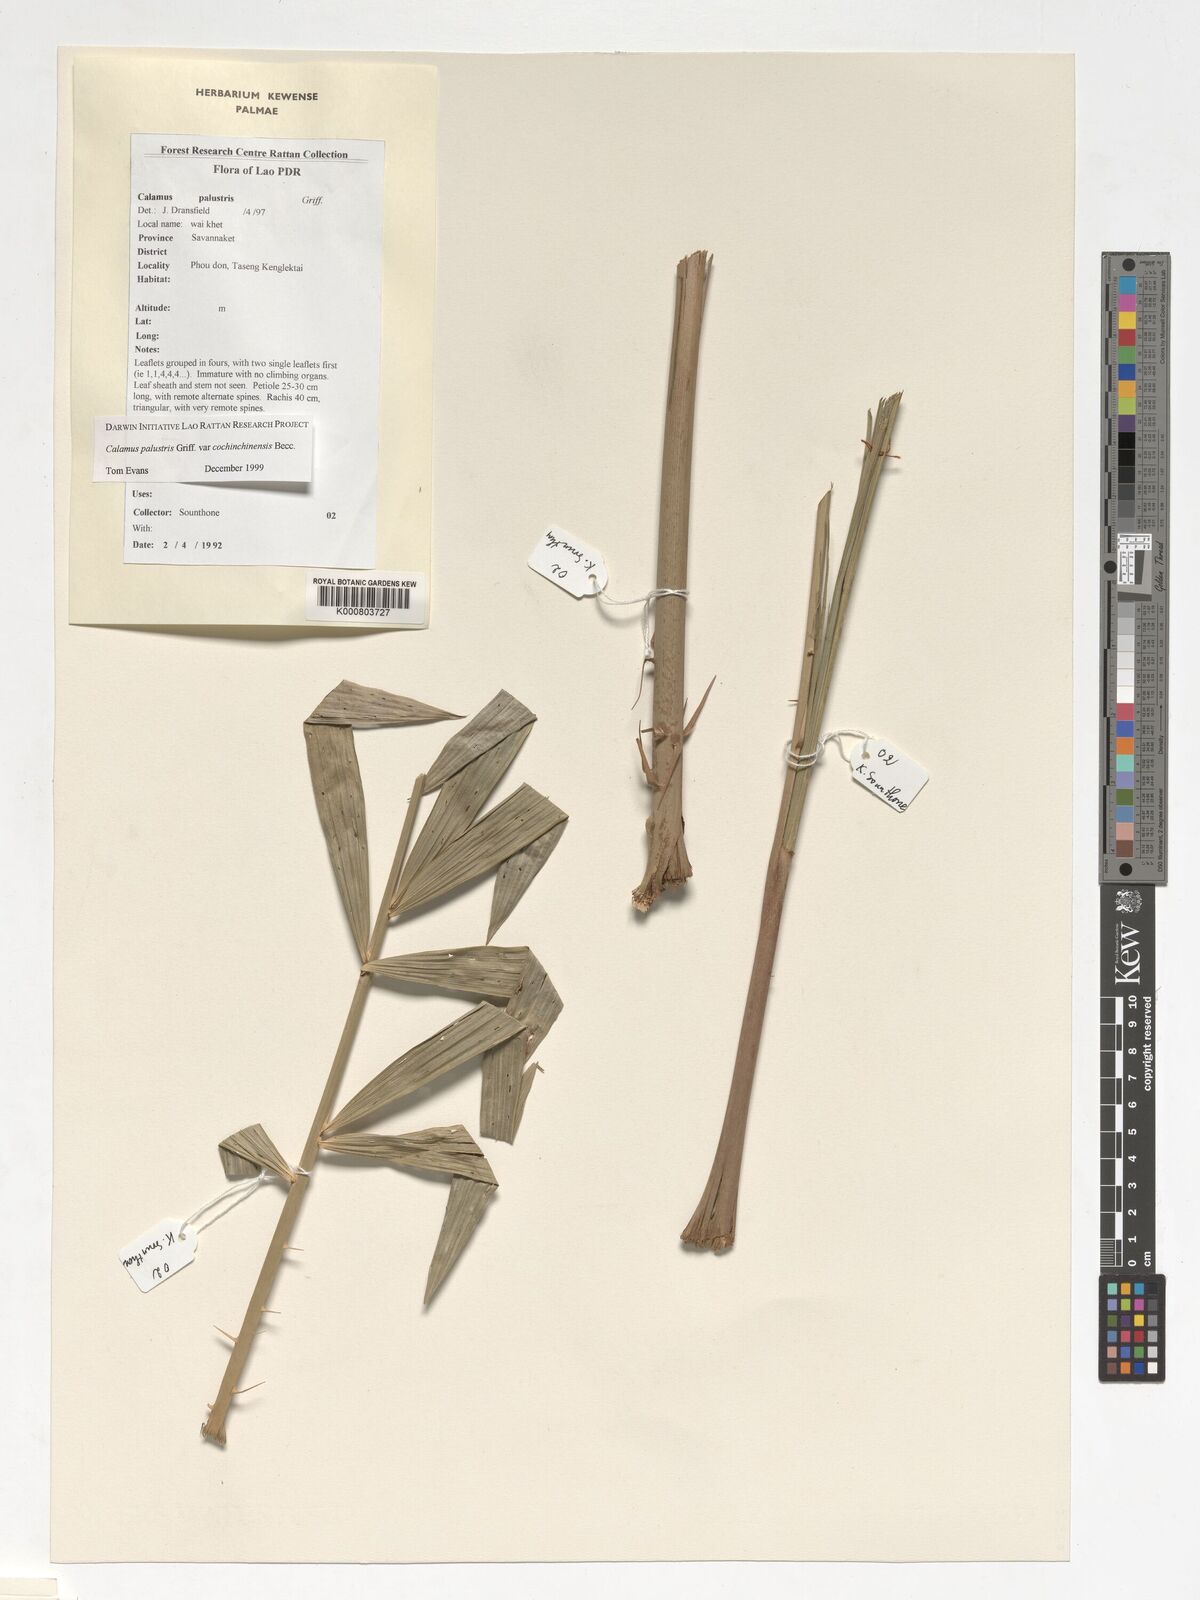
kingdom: Plantae
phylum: Tracheophyta
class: Liliopsida
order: Arecales
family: Arecaceae
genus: Calamus
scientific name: Calamus latifolius
